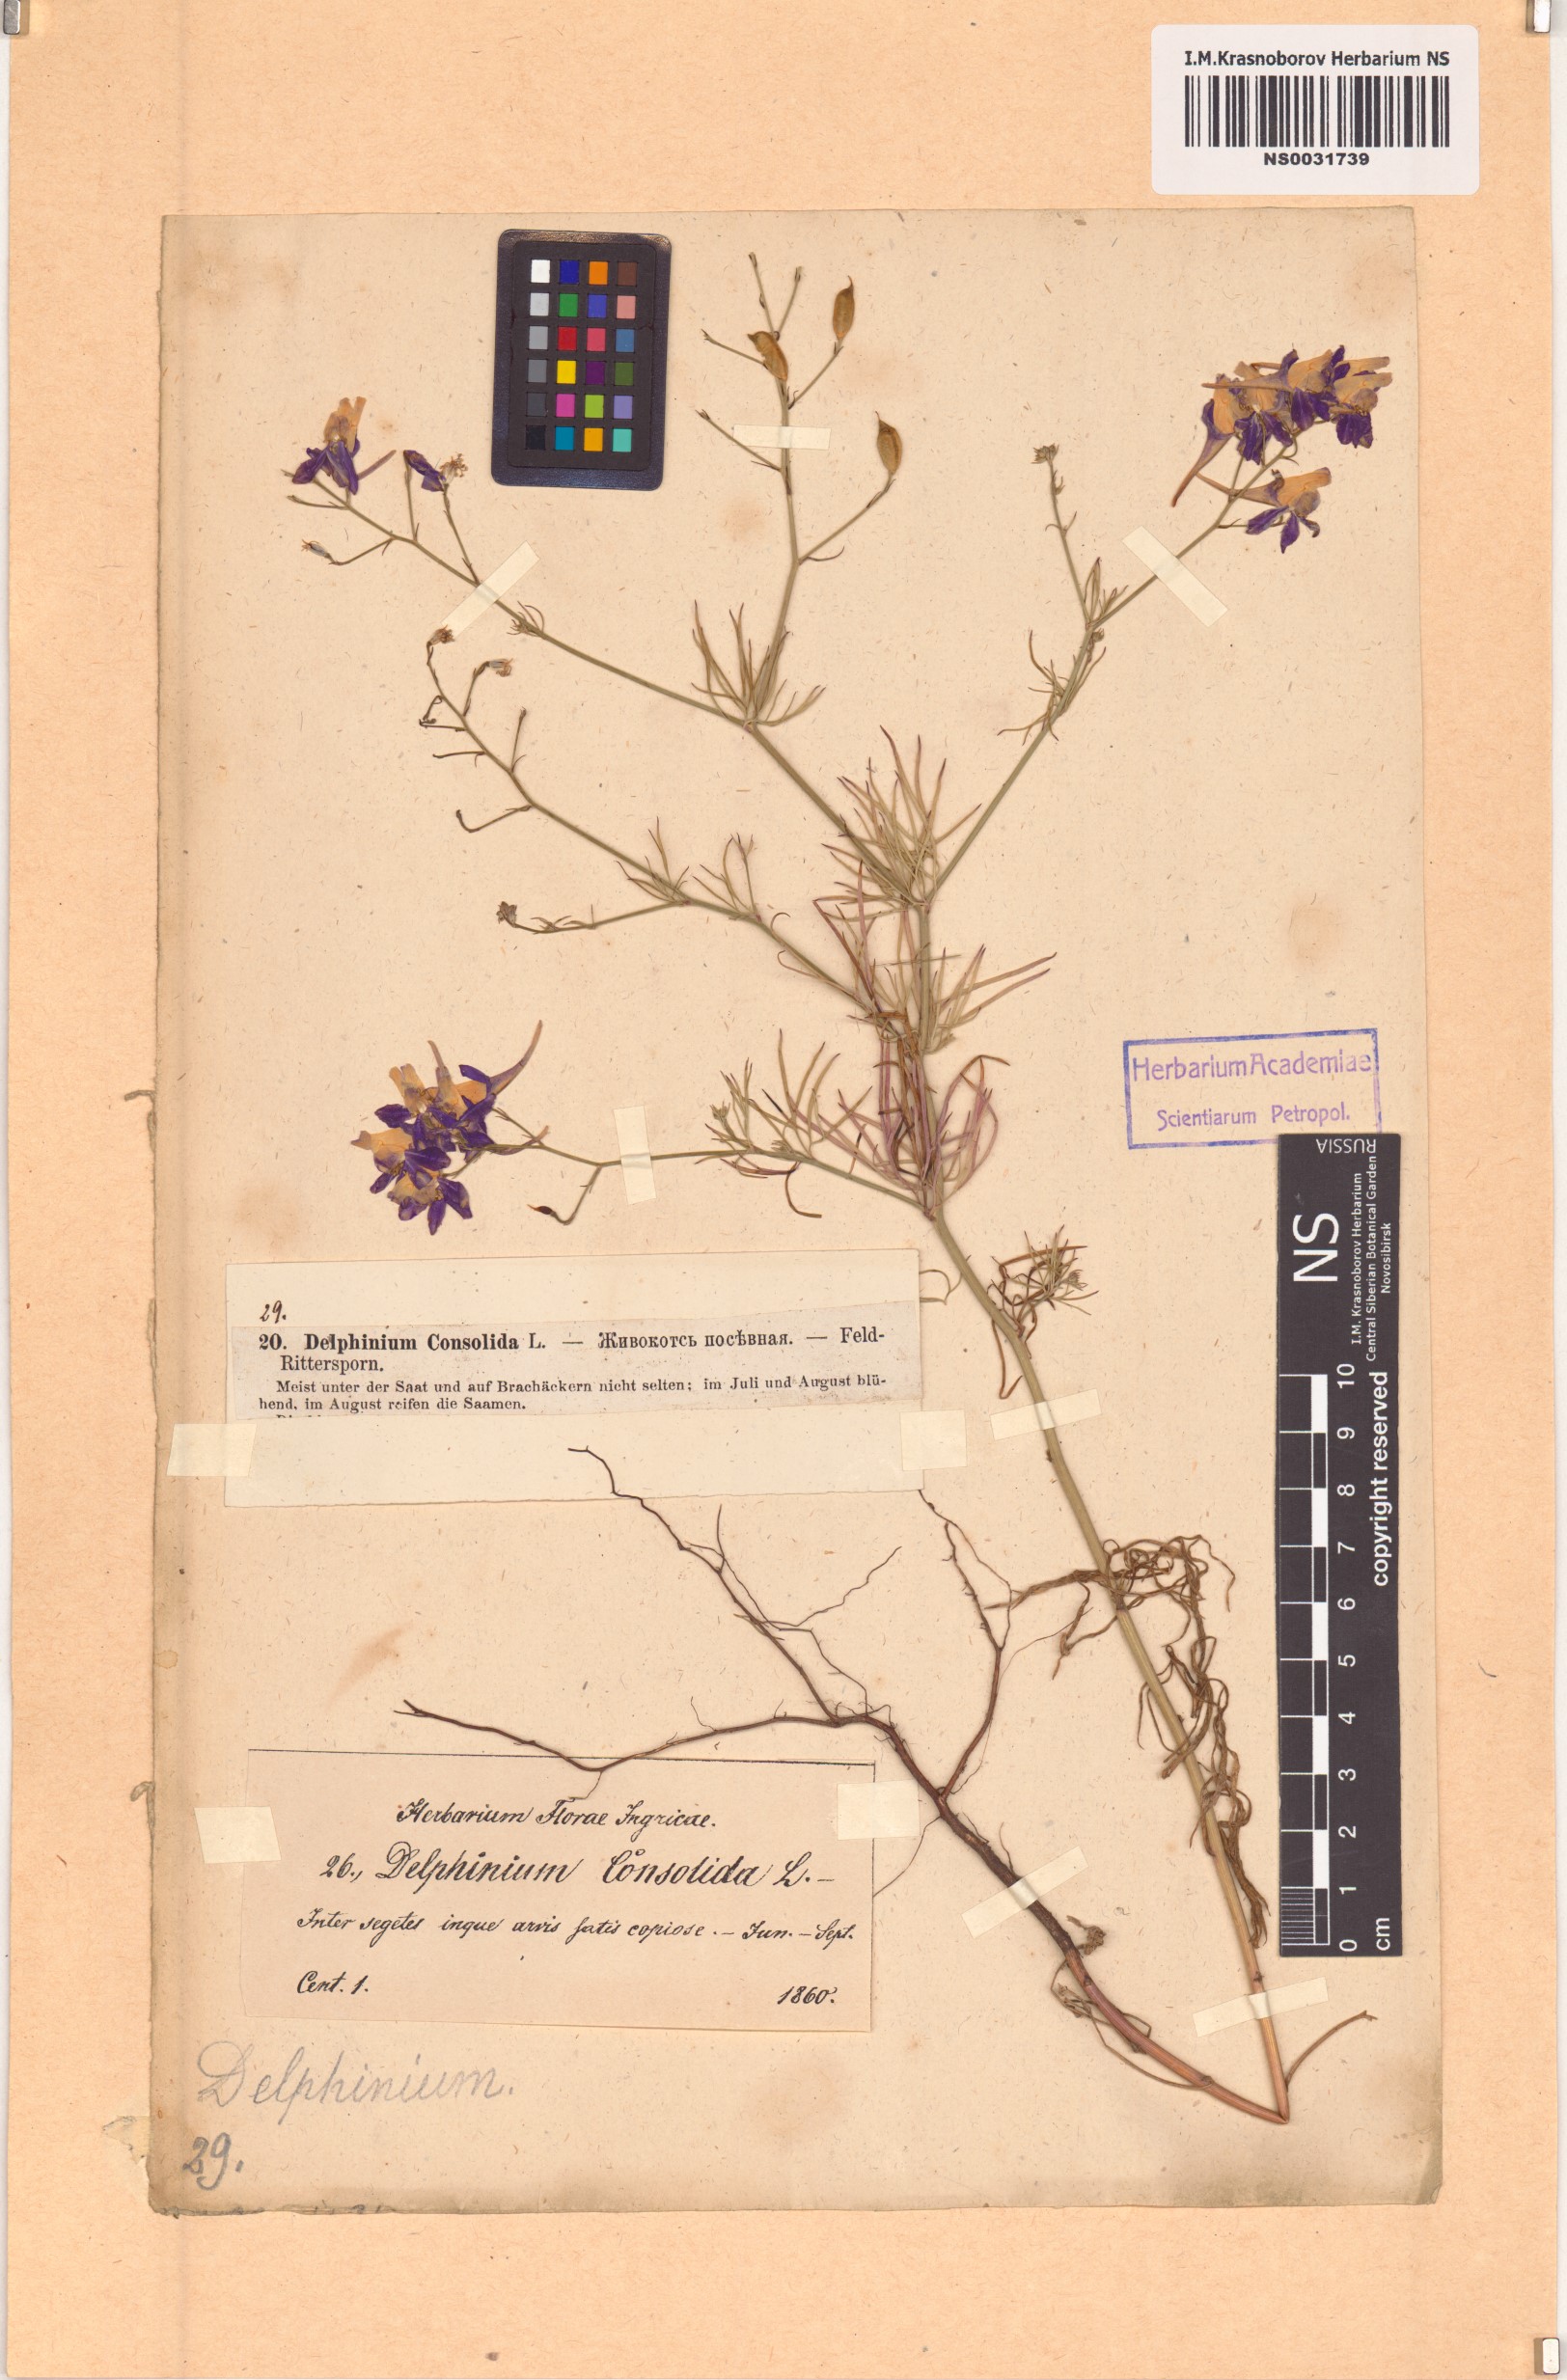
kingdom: Plantae
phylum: Tracheophyta
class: Magnoliopsida
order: Ranunculales
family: Ranunculaceae
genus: Delphinium
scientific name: Delphinium consolida
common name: Branching larkspur
